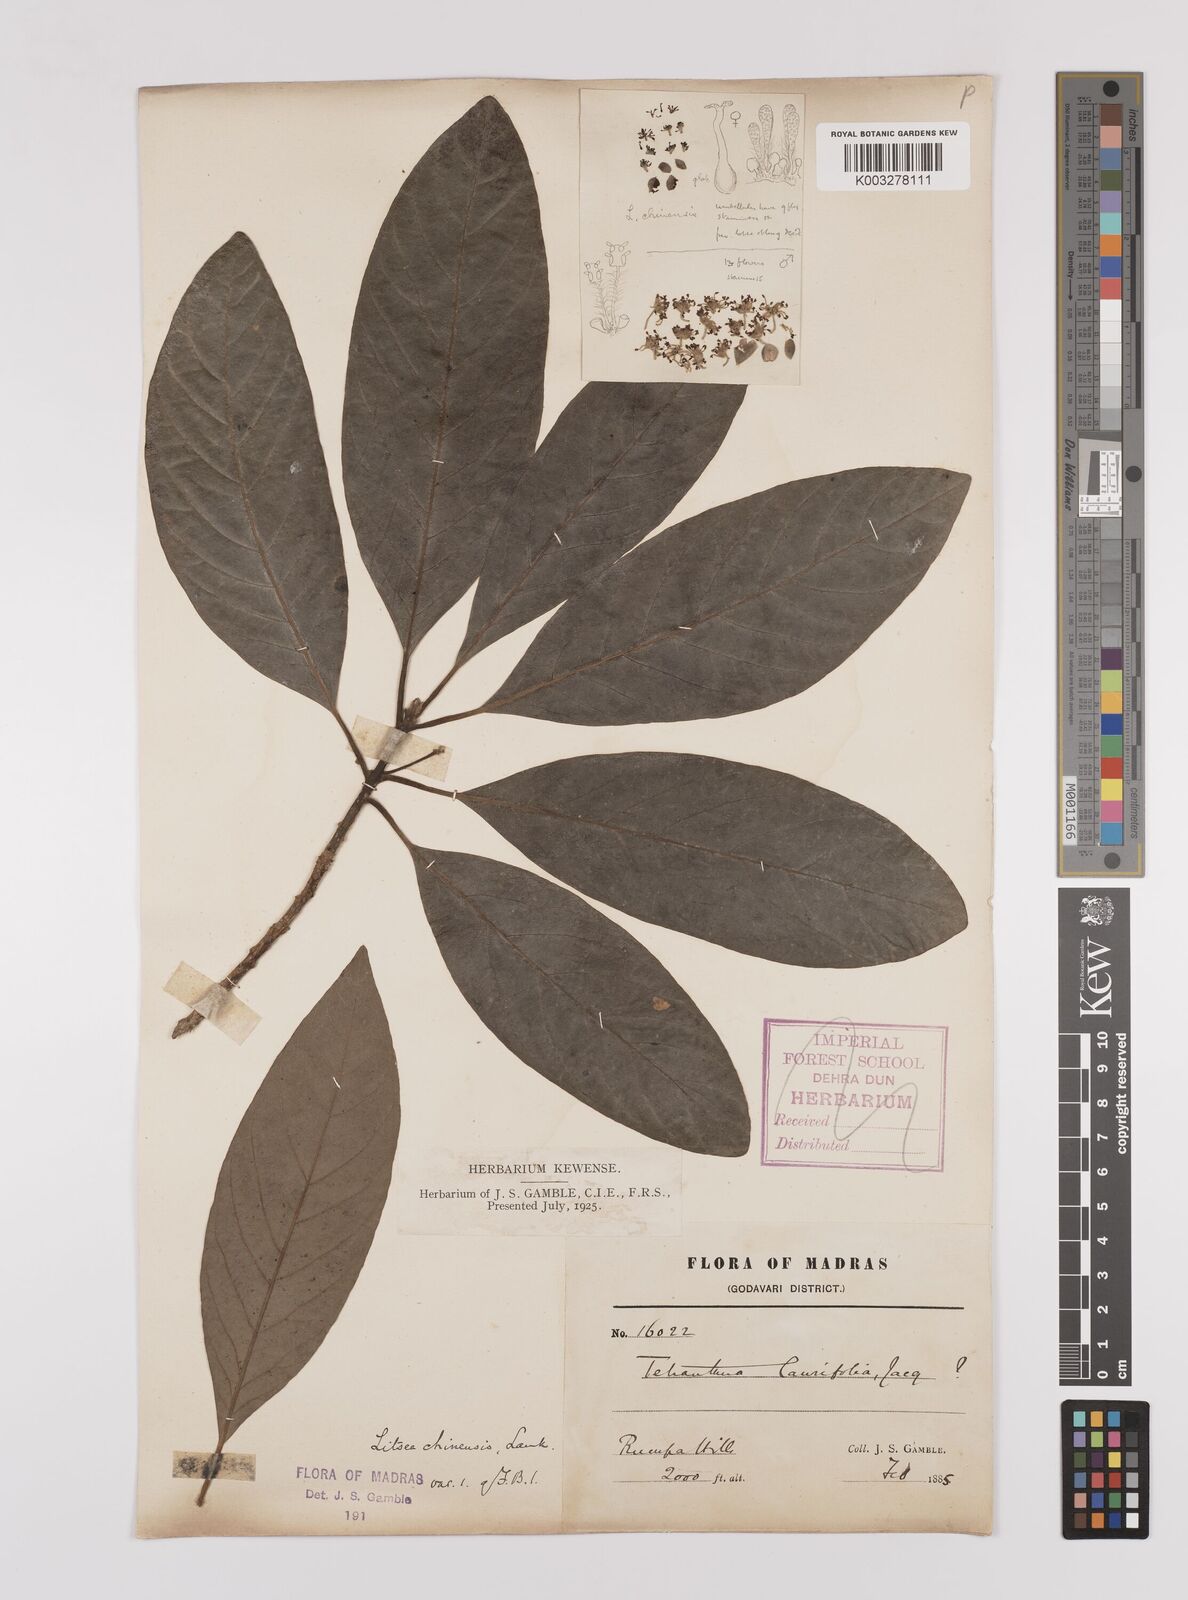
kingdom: Plantae
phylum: Tracheophyta
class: Magnoliopsida
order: Laurales
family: Lauraceae
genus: Litsea
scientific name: Litsea
